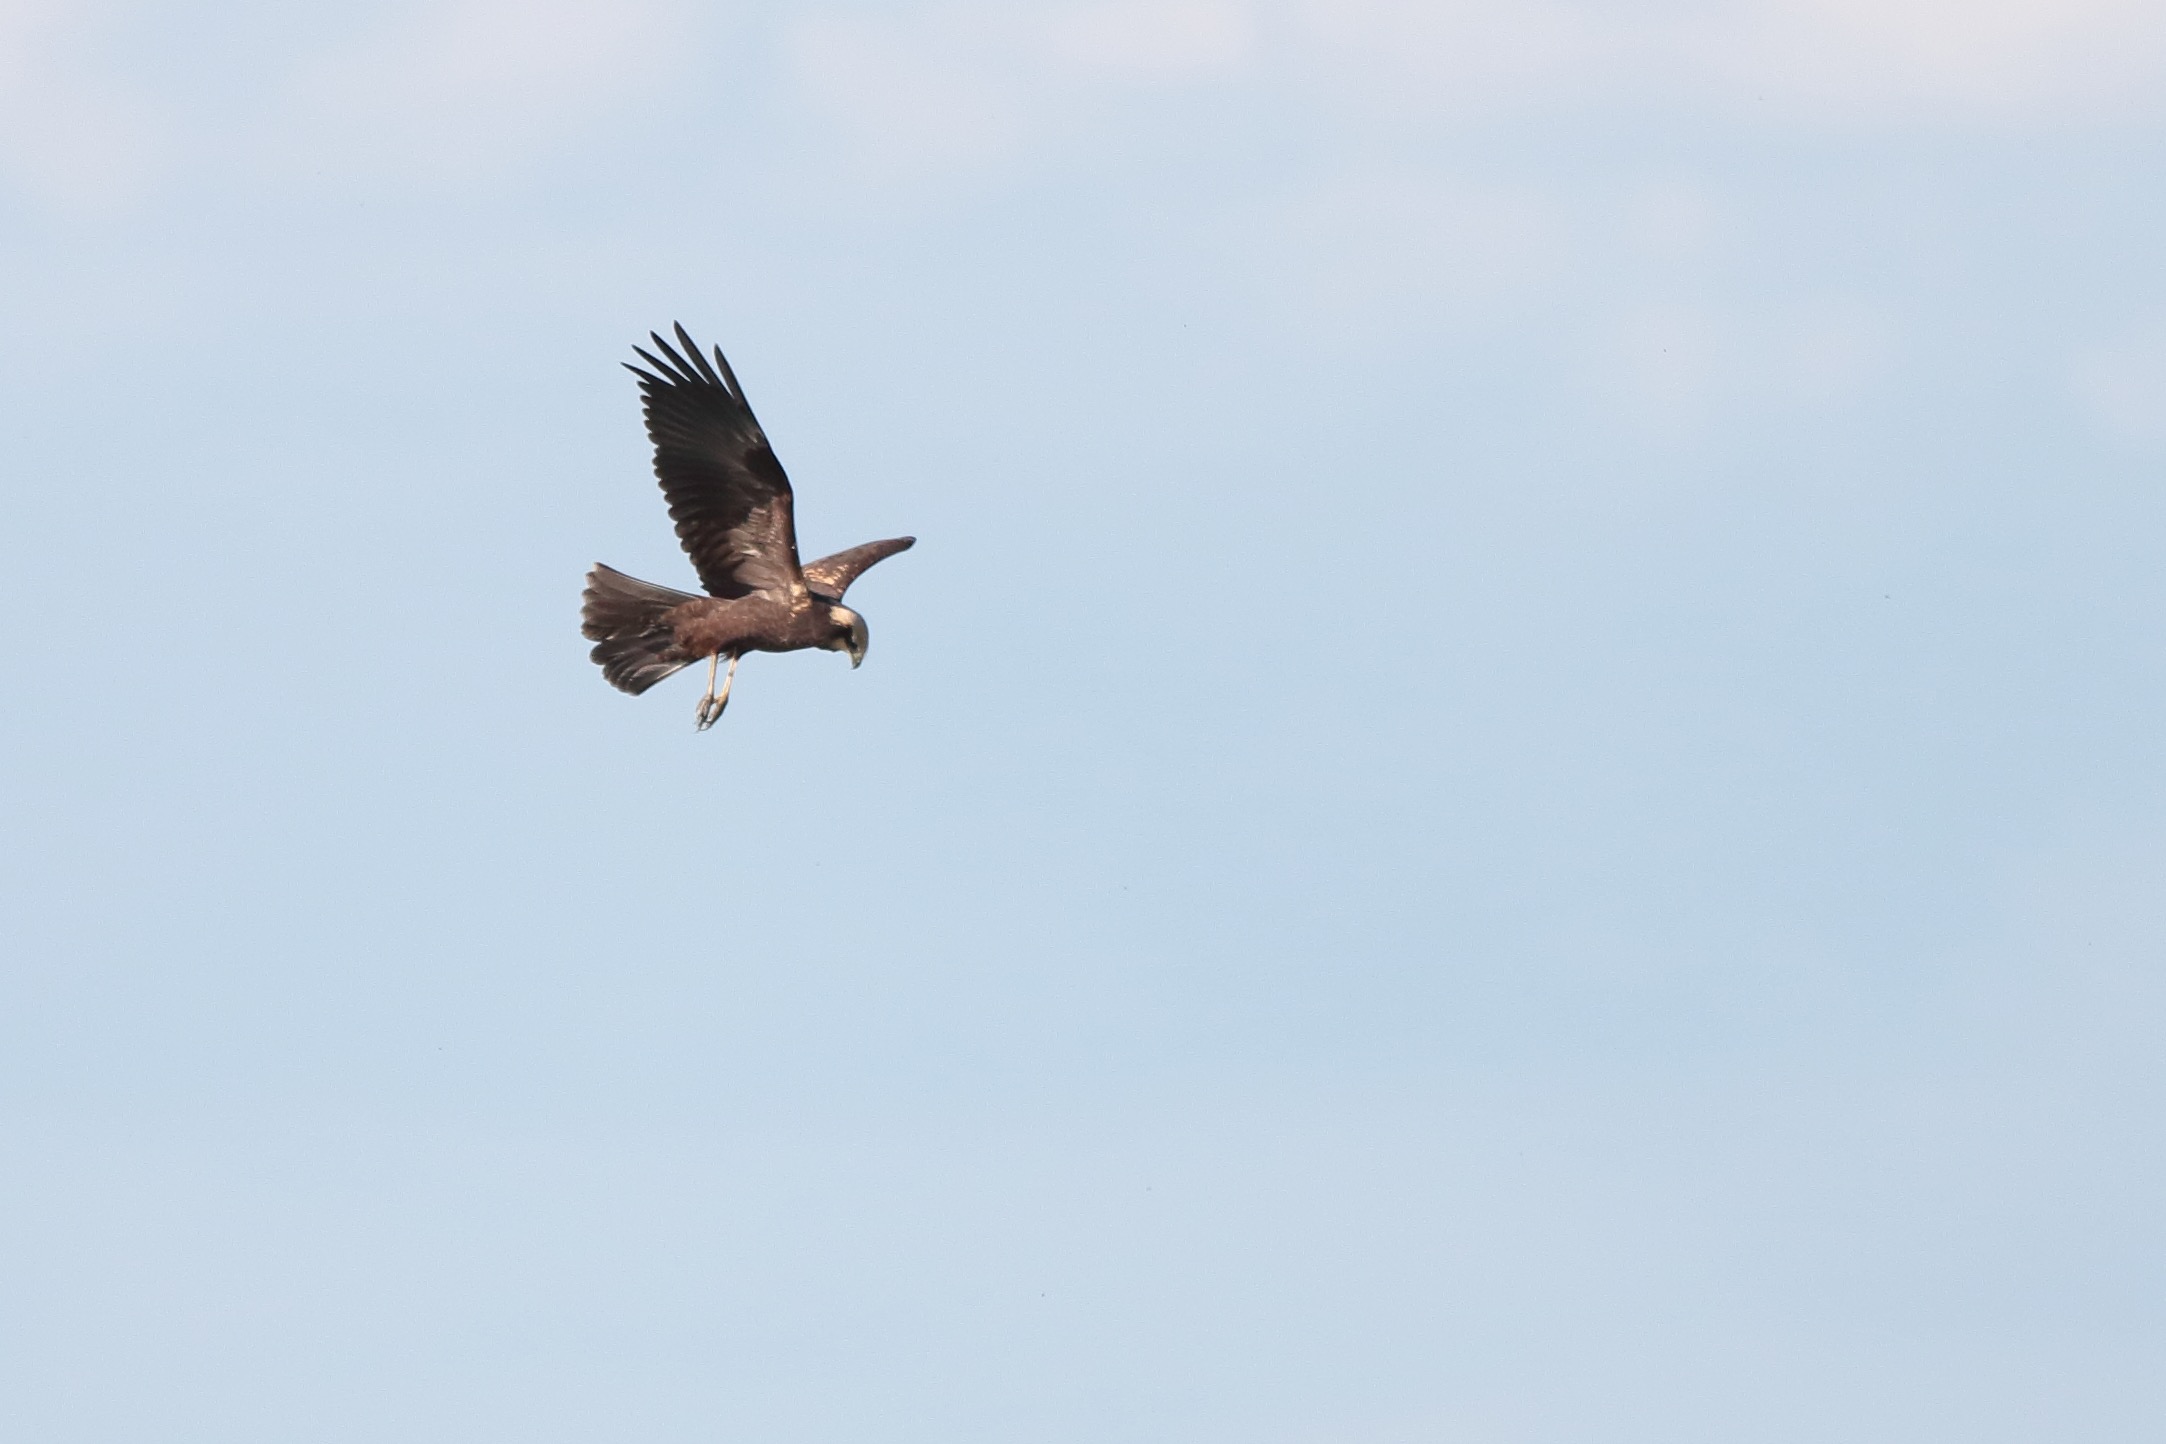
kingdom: Animalia
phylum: Chordata
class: Aves
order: Accipitriformes
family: Accipitridae
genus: Circus
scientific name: Circus aeruginosus
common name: Rørhøg
